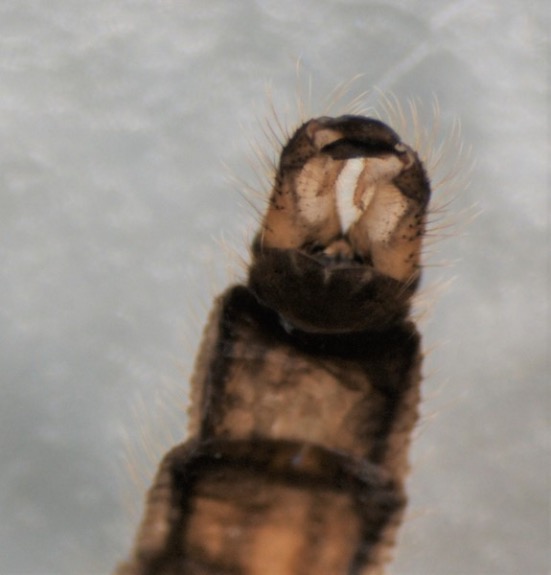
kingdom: Animalia
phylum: Arthropoda
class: Insecta
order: Diptera
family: Limoniidae
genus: Eloeophila
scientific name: Eloeophila submarmorata
